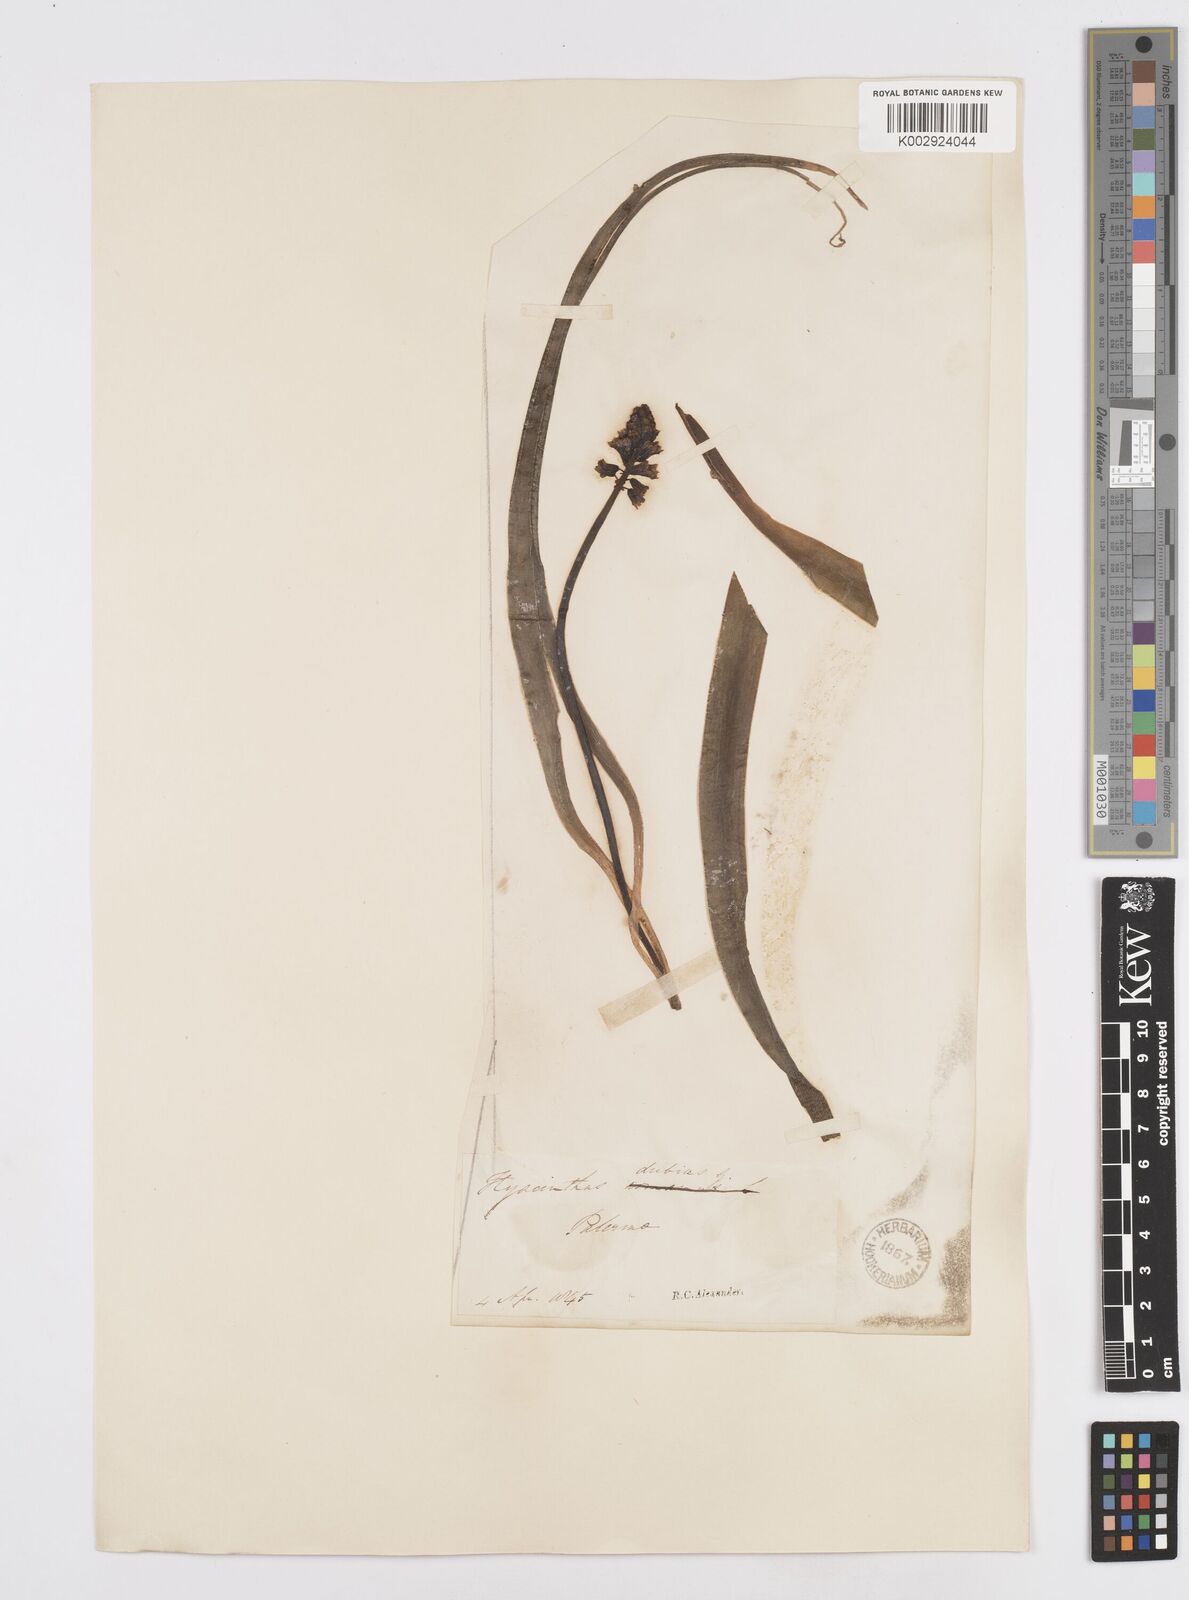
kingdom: Plantae
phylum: Tracheophyta
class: Liliopsida
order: Asparagales
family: Asparagaceae
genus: Bellevalia
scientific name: Bellevalia dubia
